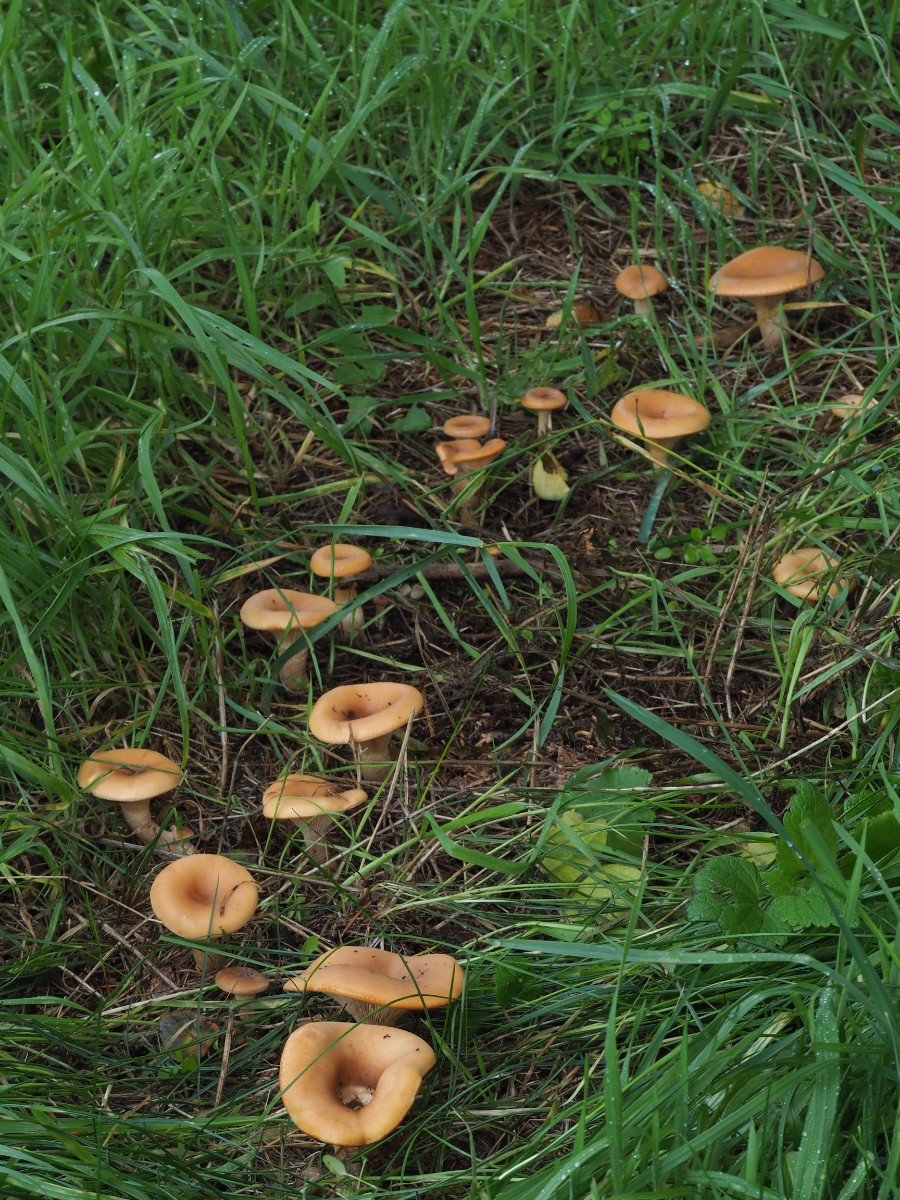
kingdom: Fungi
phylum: Basidiomycota
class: Agaricomycetes
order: Agaricales
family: Tricholomataceae
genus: Paralepista
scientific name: Paralepista flaccida
